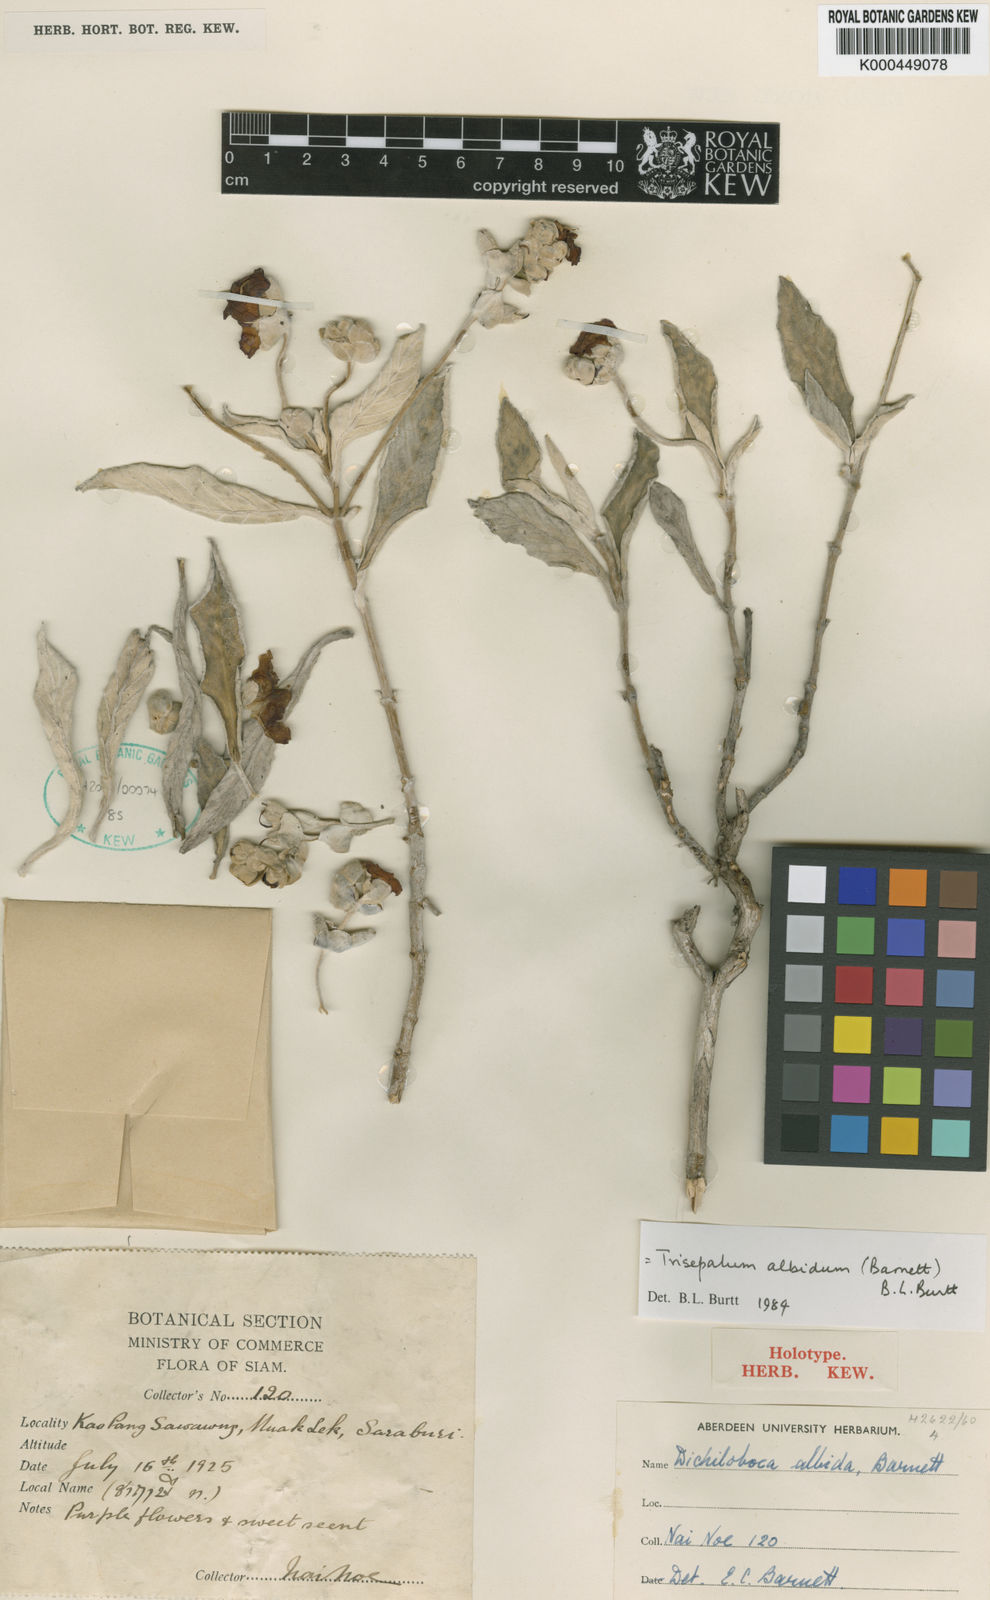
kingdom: Plantae
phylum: Tracheophyta
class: Magnoliopsida
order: Lamiales
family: Gesneriaceae
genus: Paraboea
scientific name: Paraboea albida
